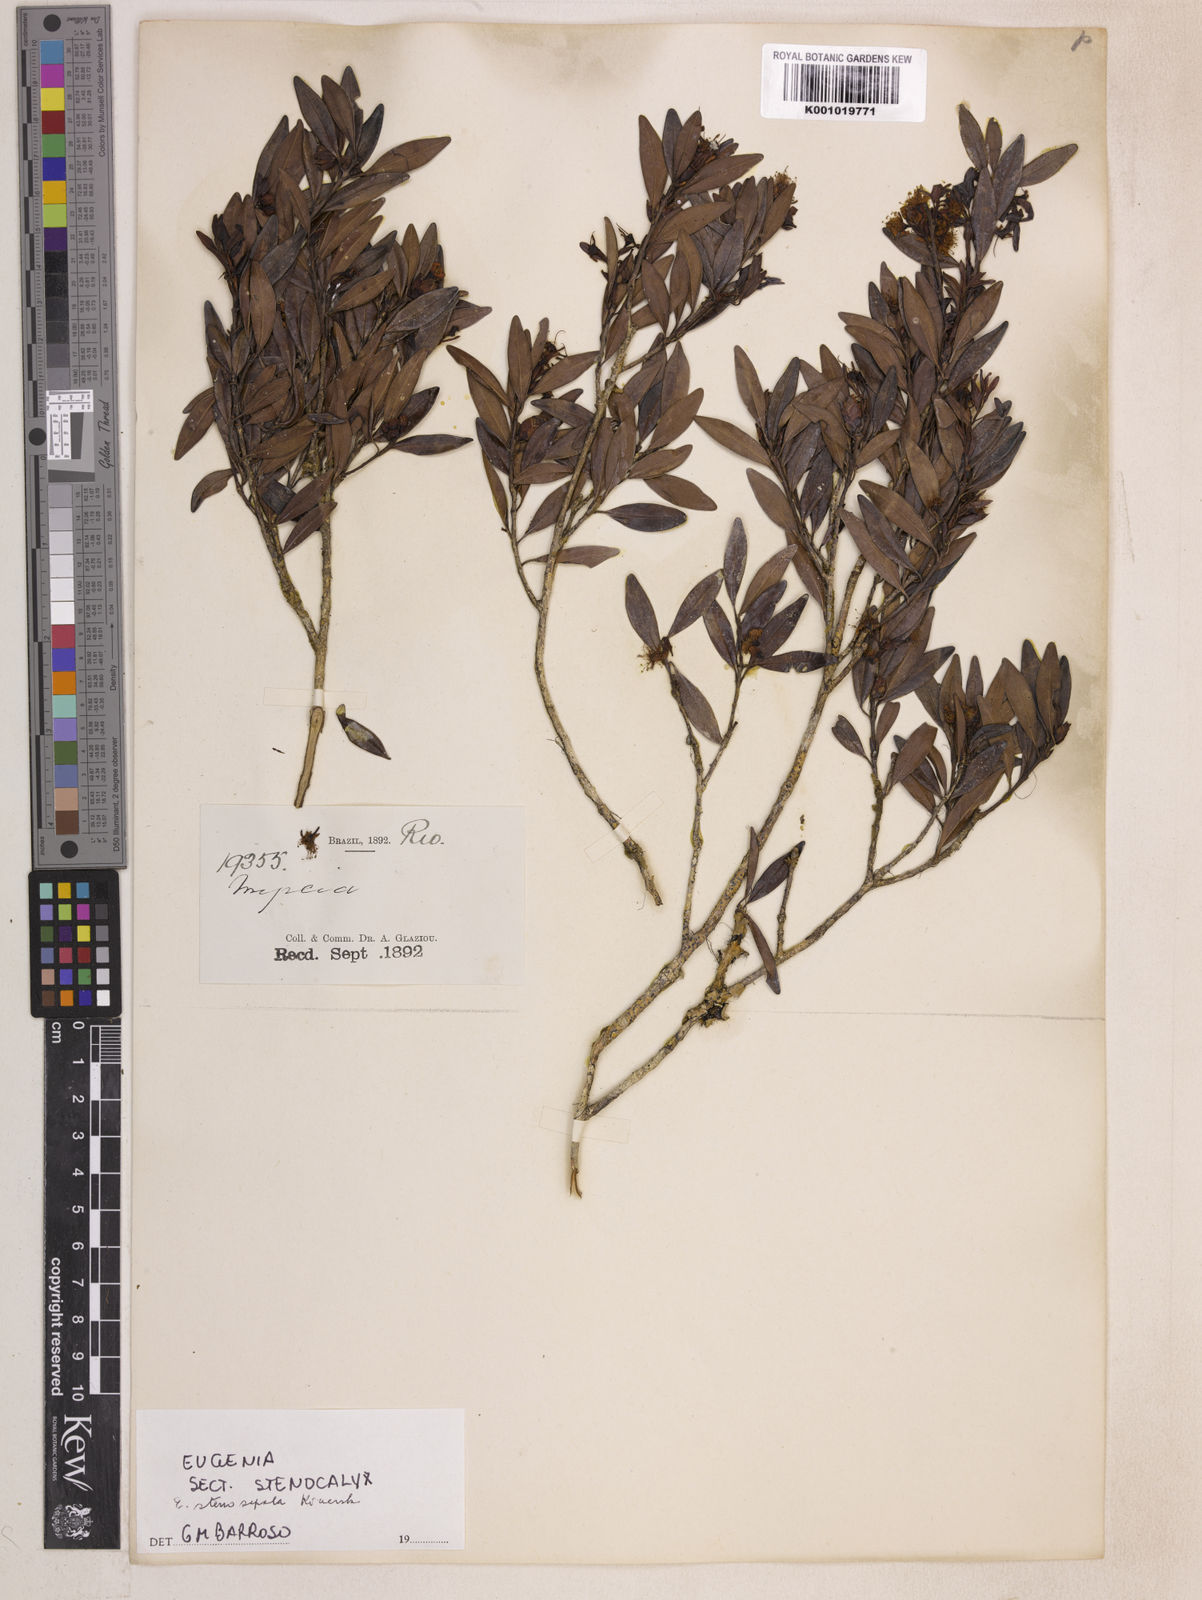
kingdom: Plantae
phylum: Tracheophyta
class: Magnoliopsida
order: Myrtales
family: Myrtaceae
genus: Eugenia
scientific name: Eugenia stenosepala
